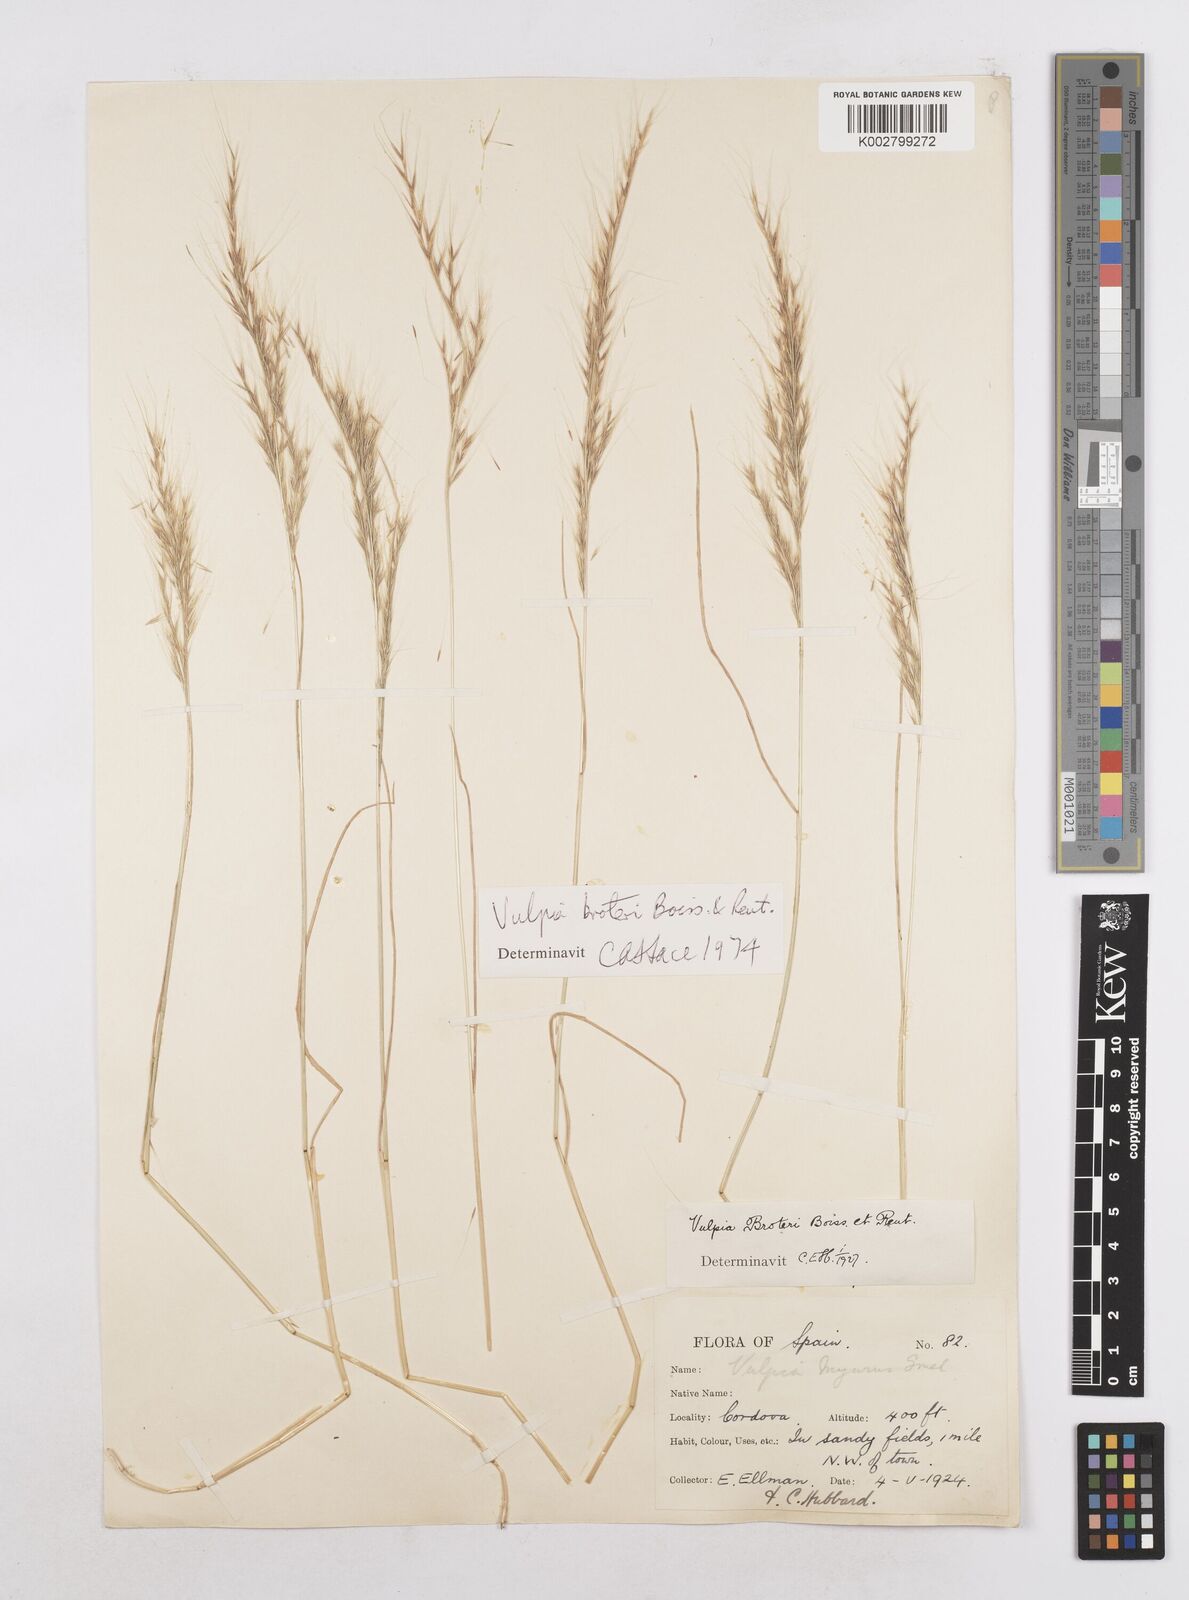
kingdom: Plantae
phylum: Tracheophyta
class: Liliopsida
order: Poales
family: Poaceae
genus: Festuca
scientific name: Festuca muralis
